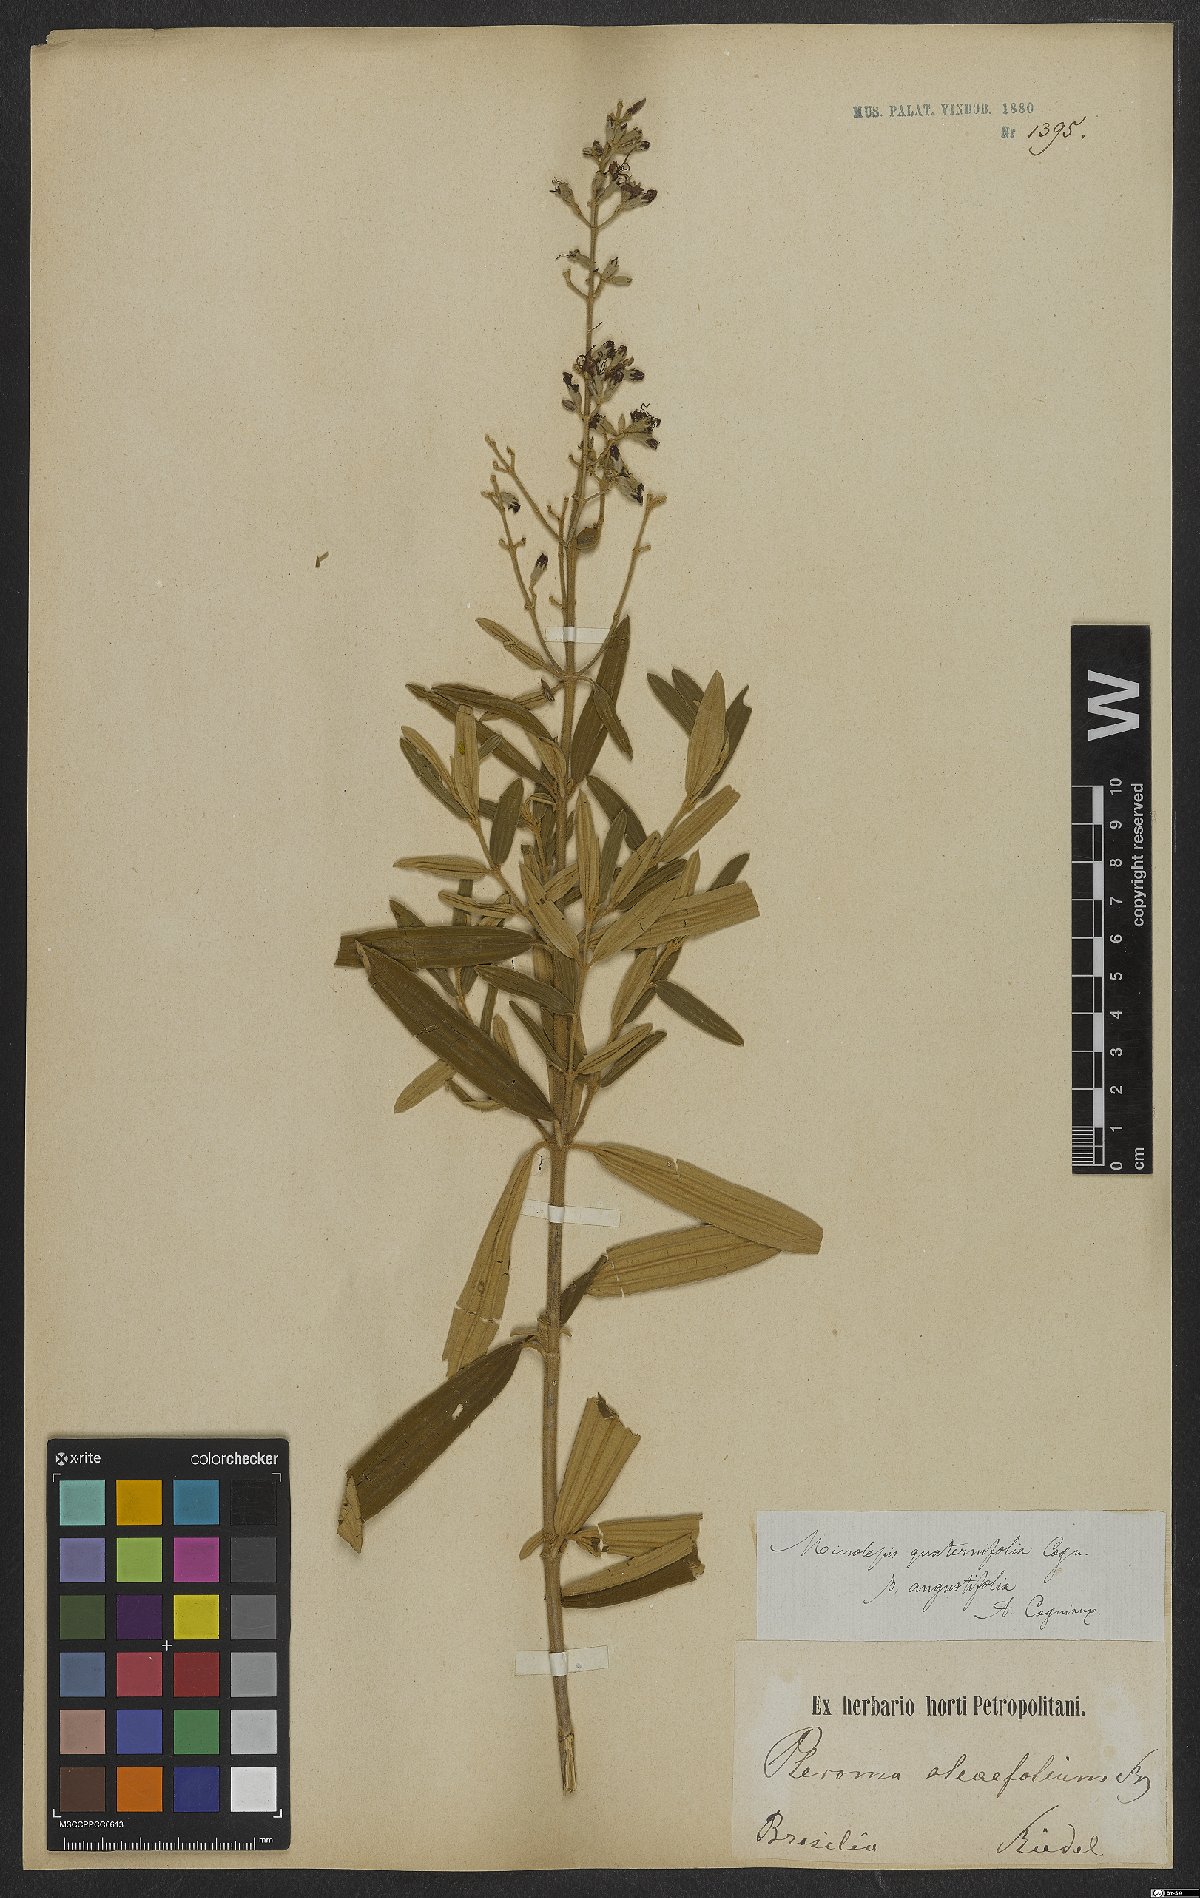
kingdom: Plantae
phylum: Tracheophyta
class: Magnoliopsida
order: Myrtales
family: Melastomataceae
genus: Pleroma
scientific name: Pleroma kleinii
